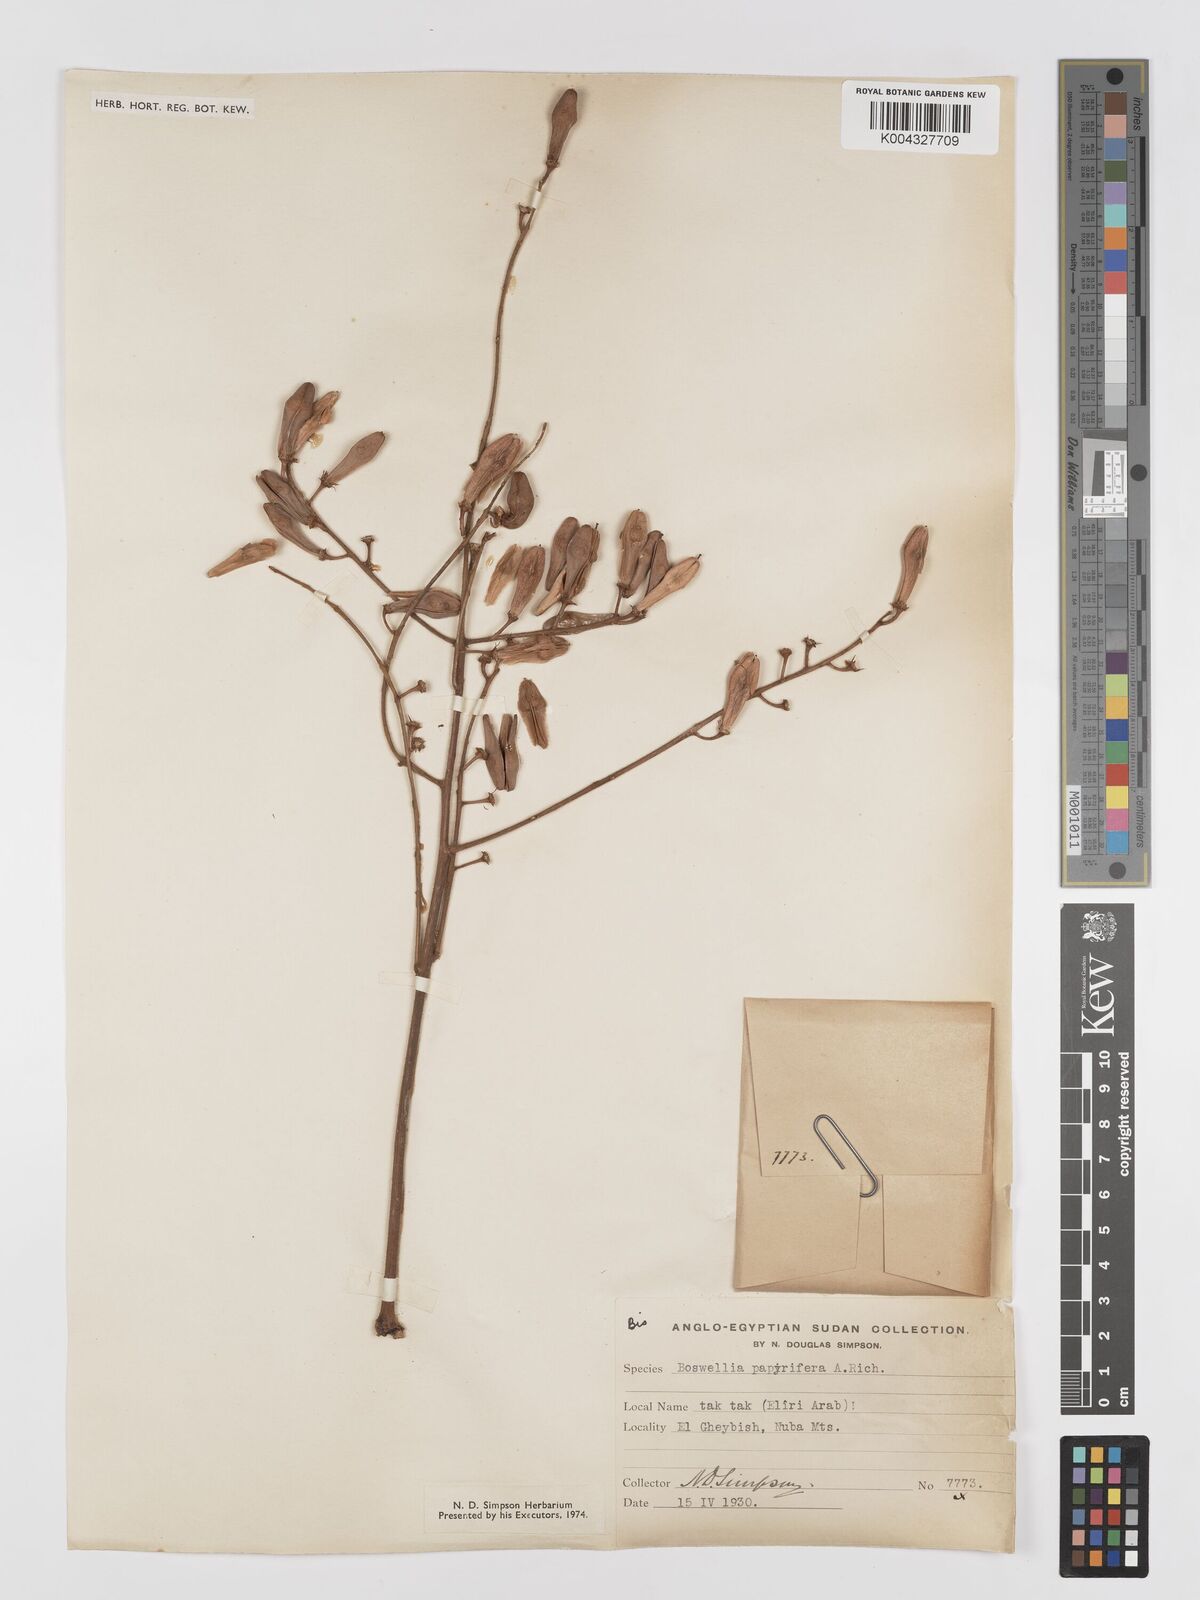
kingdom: Plantae
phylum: Tracheophyta
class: Magnoliopsida
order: Sapindales
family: Burseraceae
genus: Boswellia
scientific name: Boswellia papyrifera
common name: Sudanese frankincense
